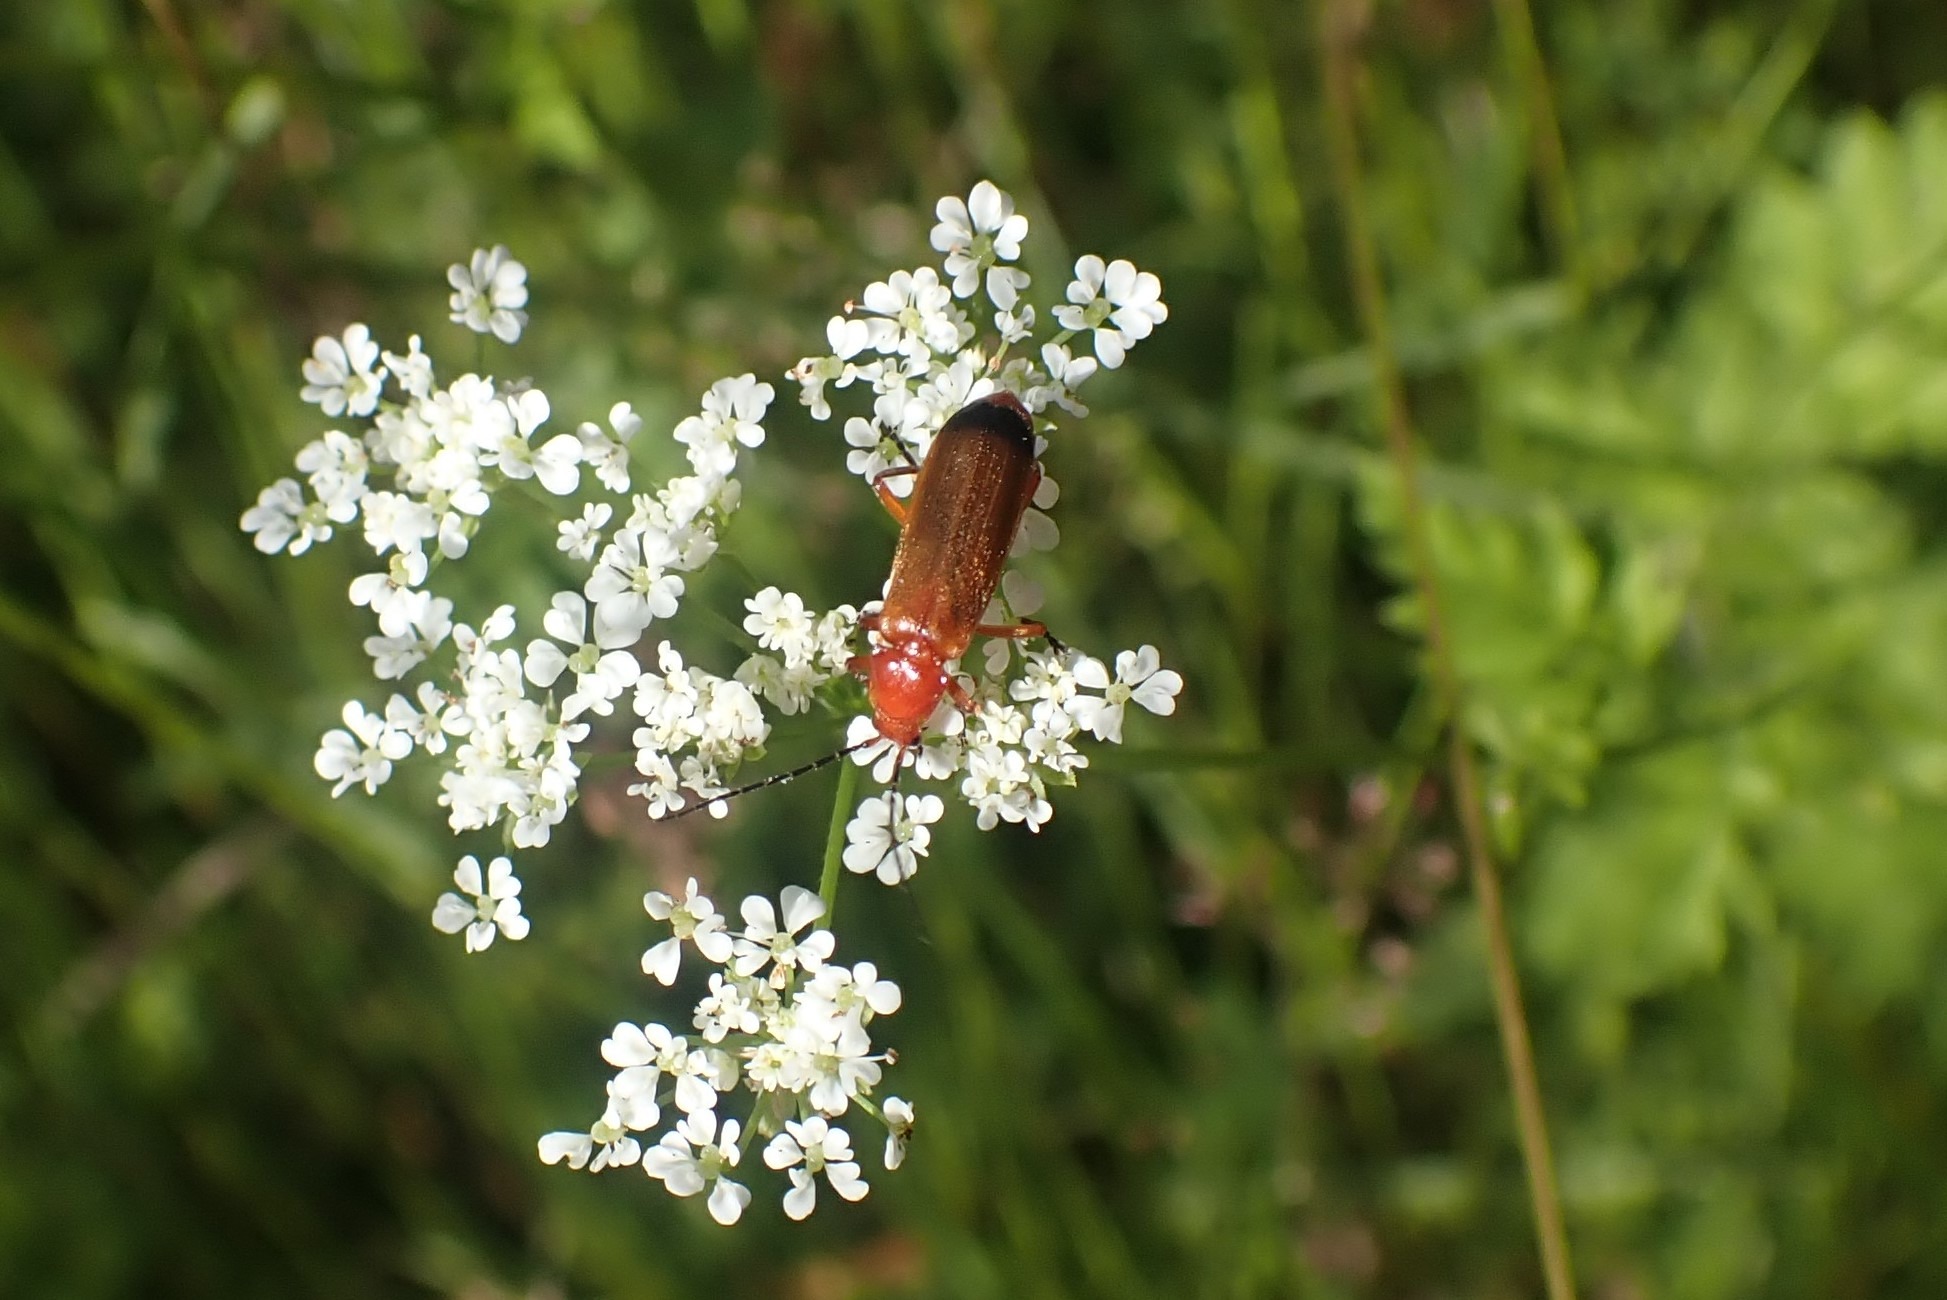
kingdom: Animalia
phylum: Arthropoda
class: Insecta
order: Coleoptera
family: Cantharidae
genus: Rhagonycha
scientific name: Rhagonycha fulva
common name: Præstebille
